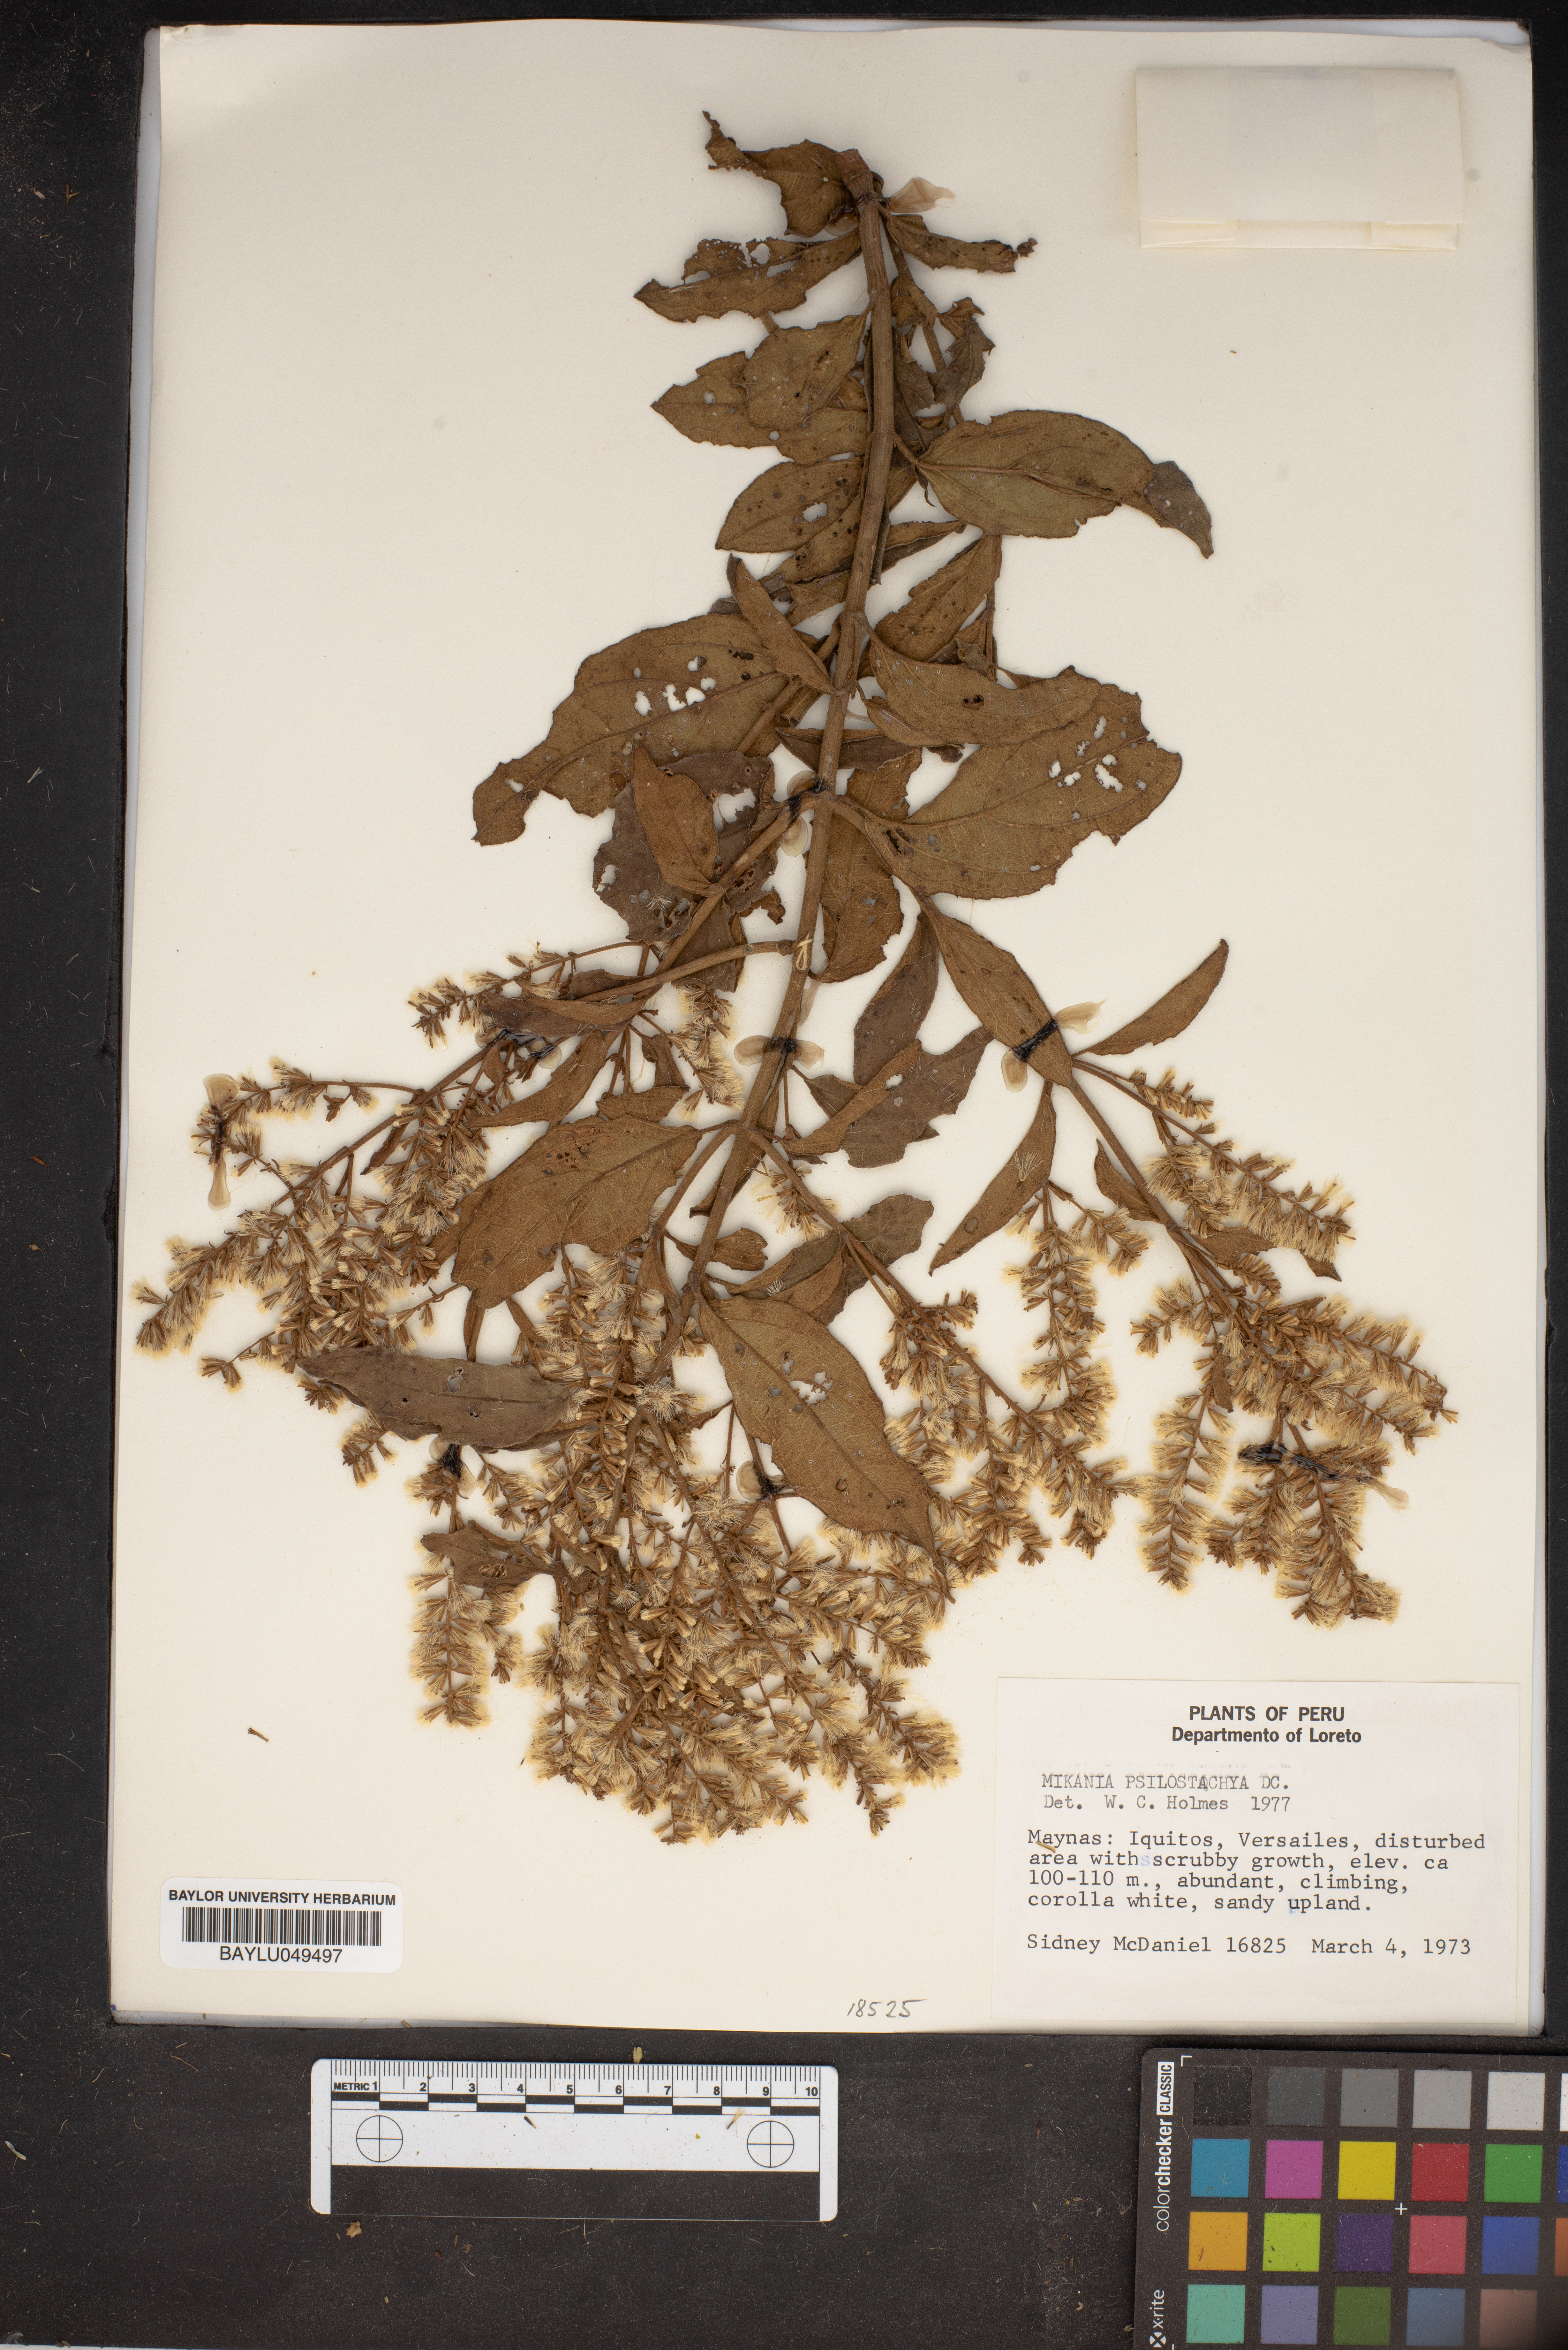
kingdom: Plantae
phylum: Tracheophyta
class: Magnoliopsida
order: Asterales
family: Asteraceae
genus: Mikania
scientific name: Mikania psilostachya
